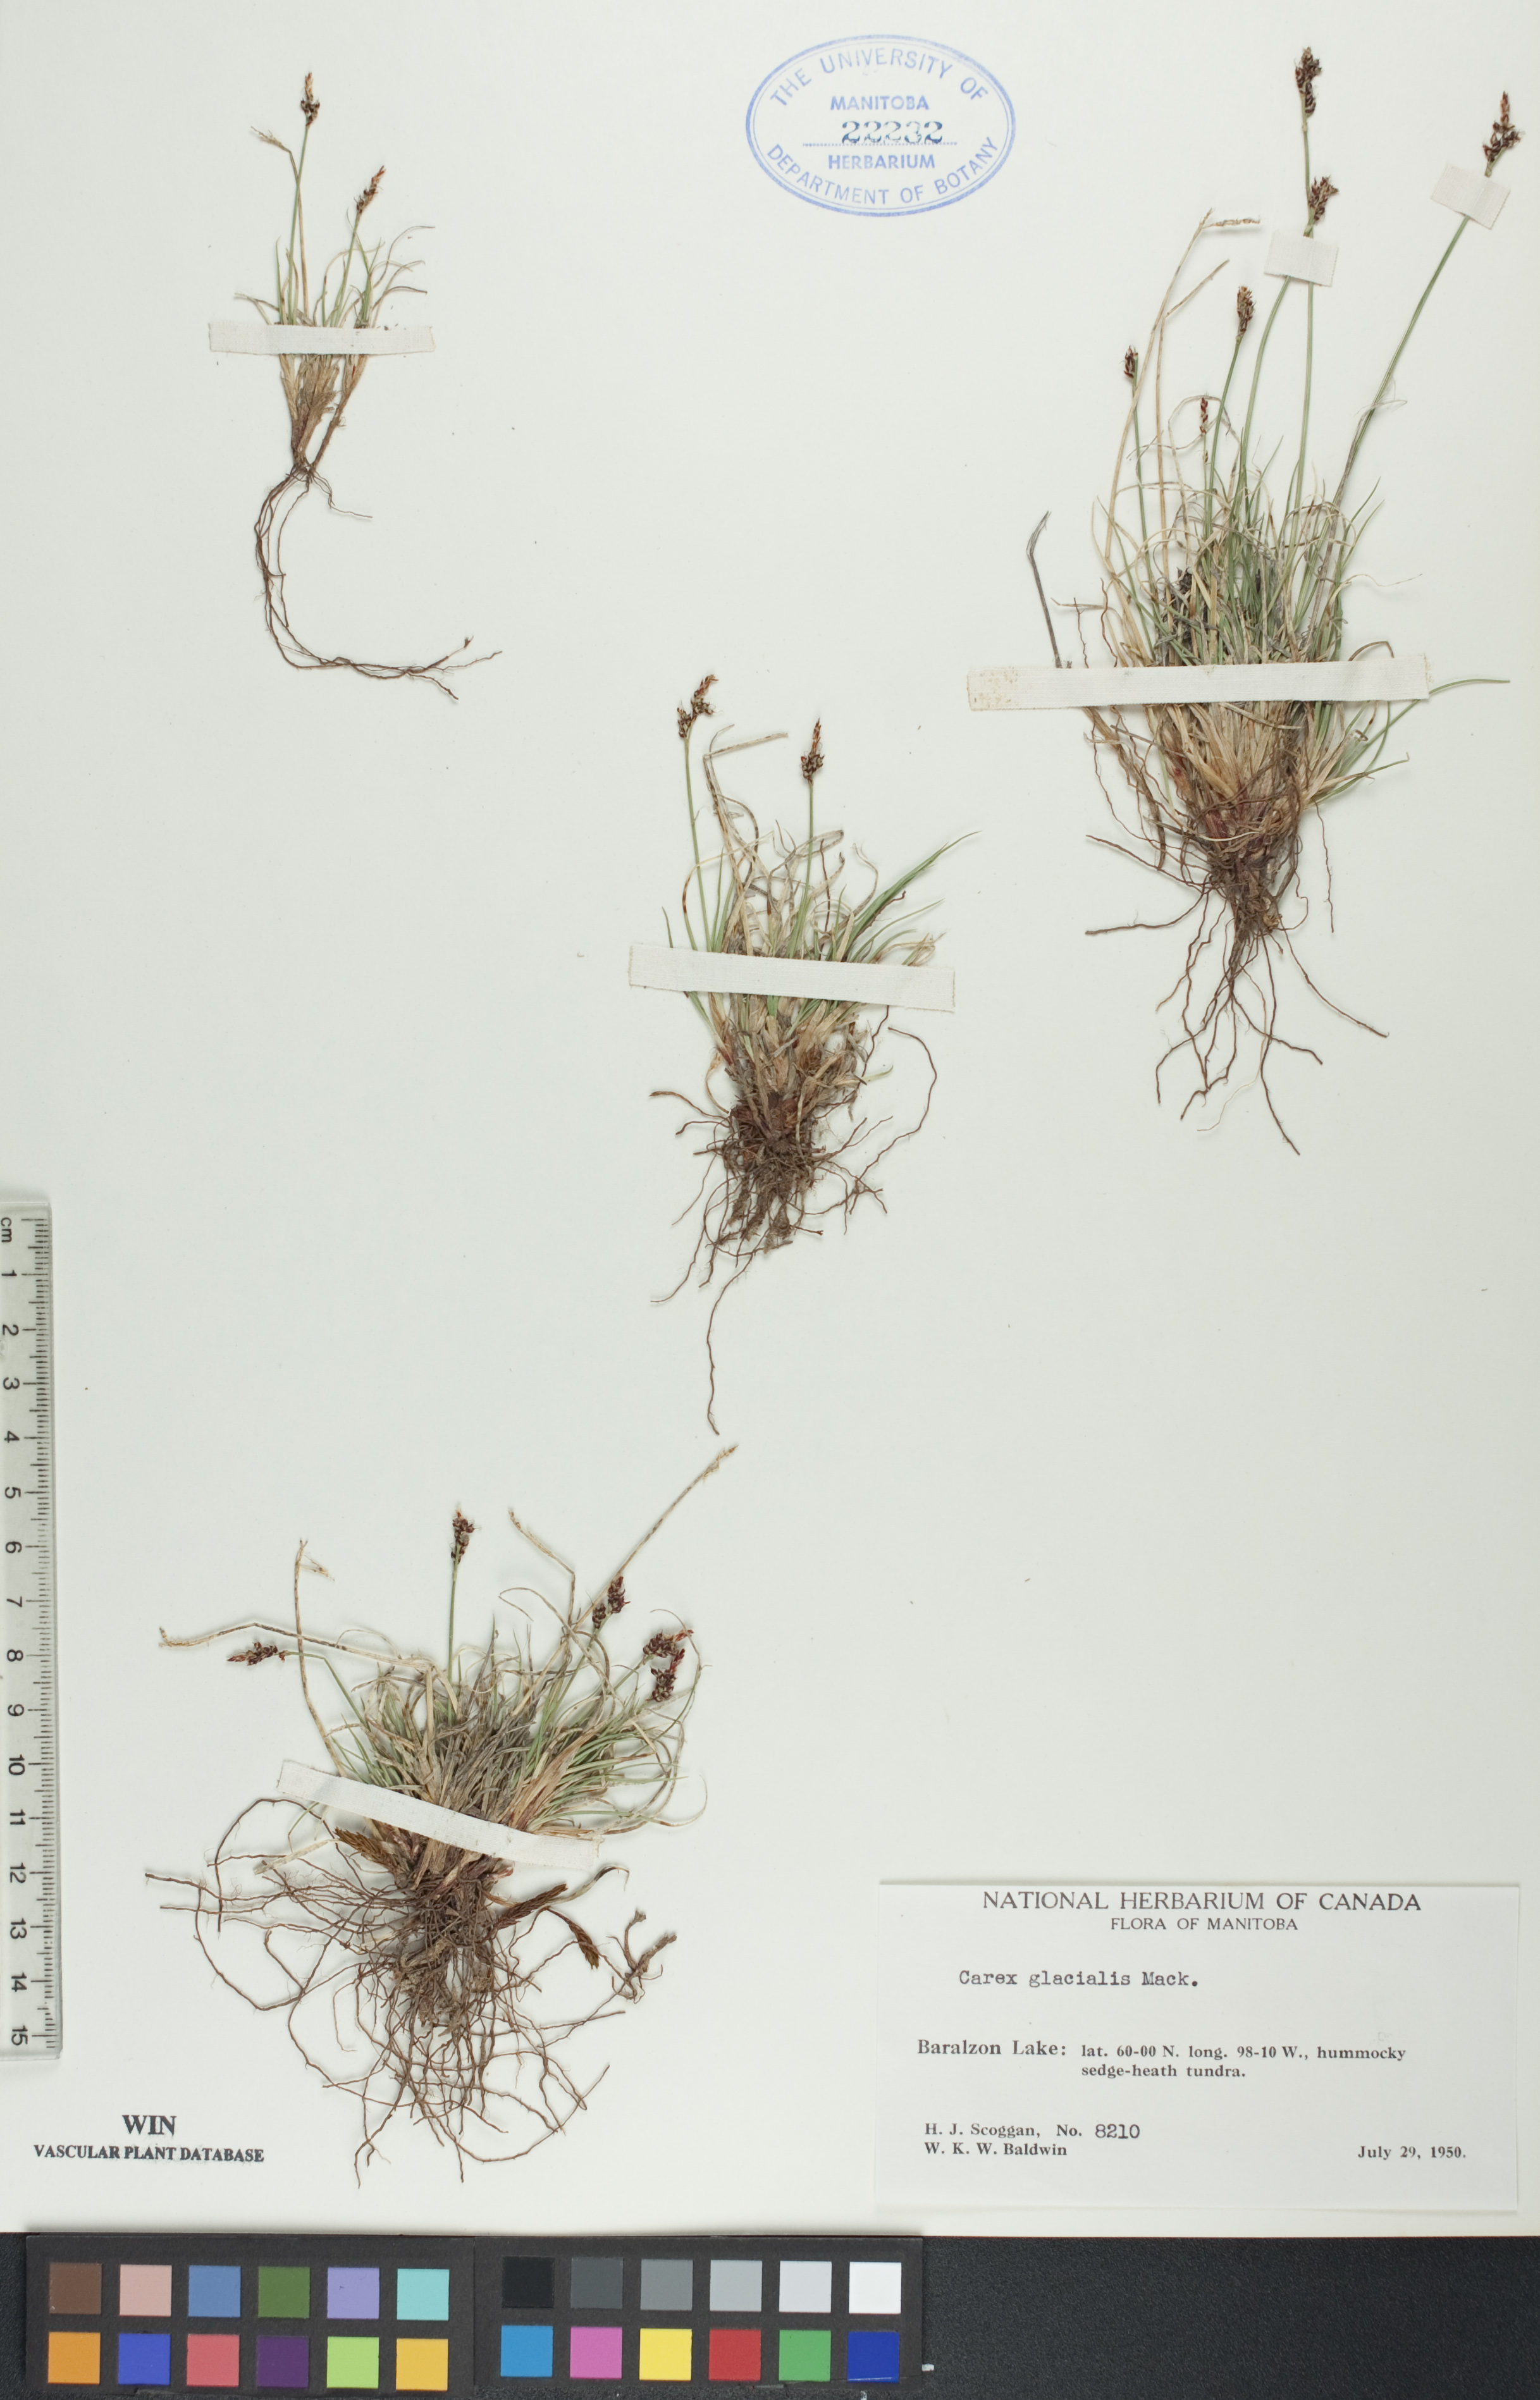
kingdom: Plantae
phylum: Tracheophyta
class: Liliopsida
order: Poales
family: Cyperaceae
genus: Carex
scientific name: Carex glacialis
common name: Newfoundland sedge
